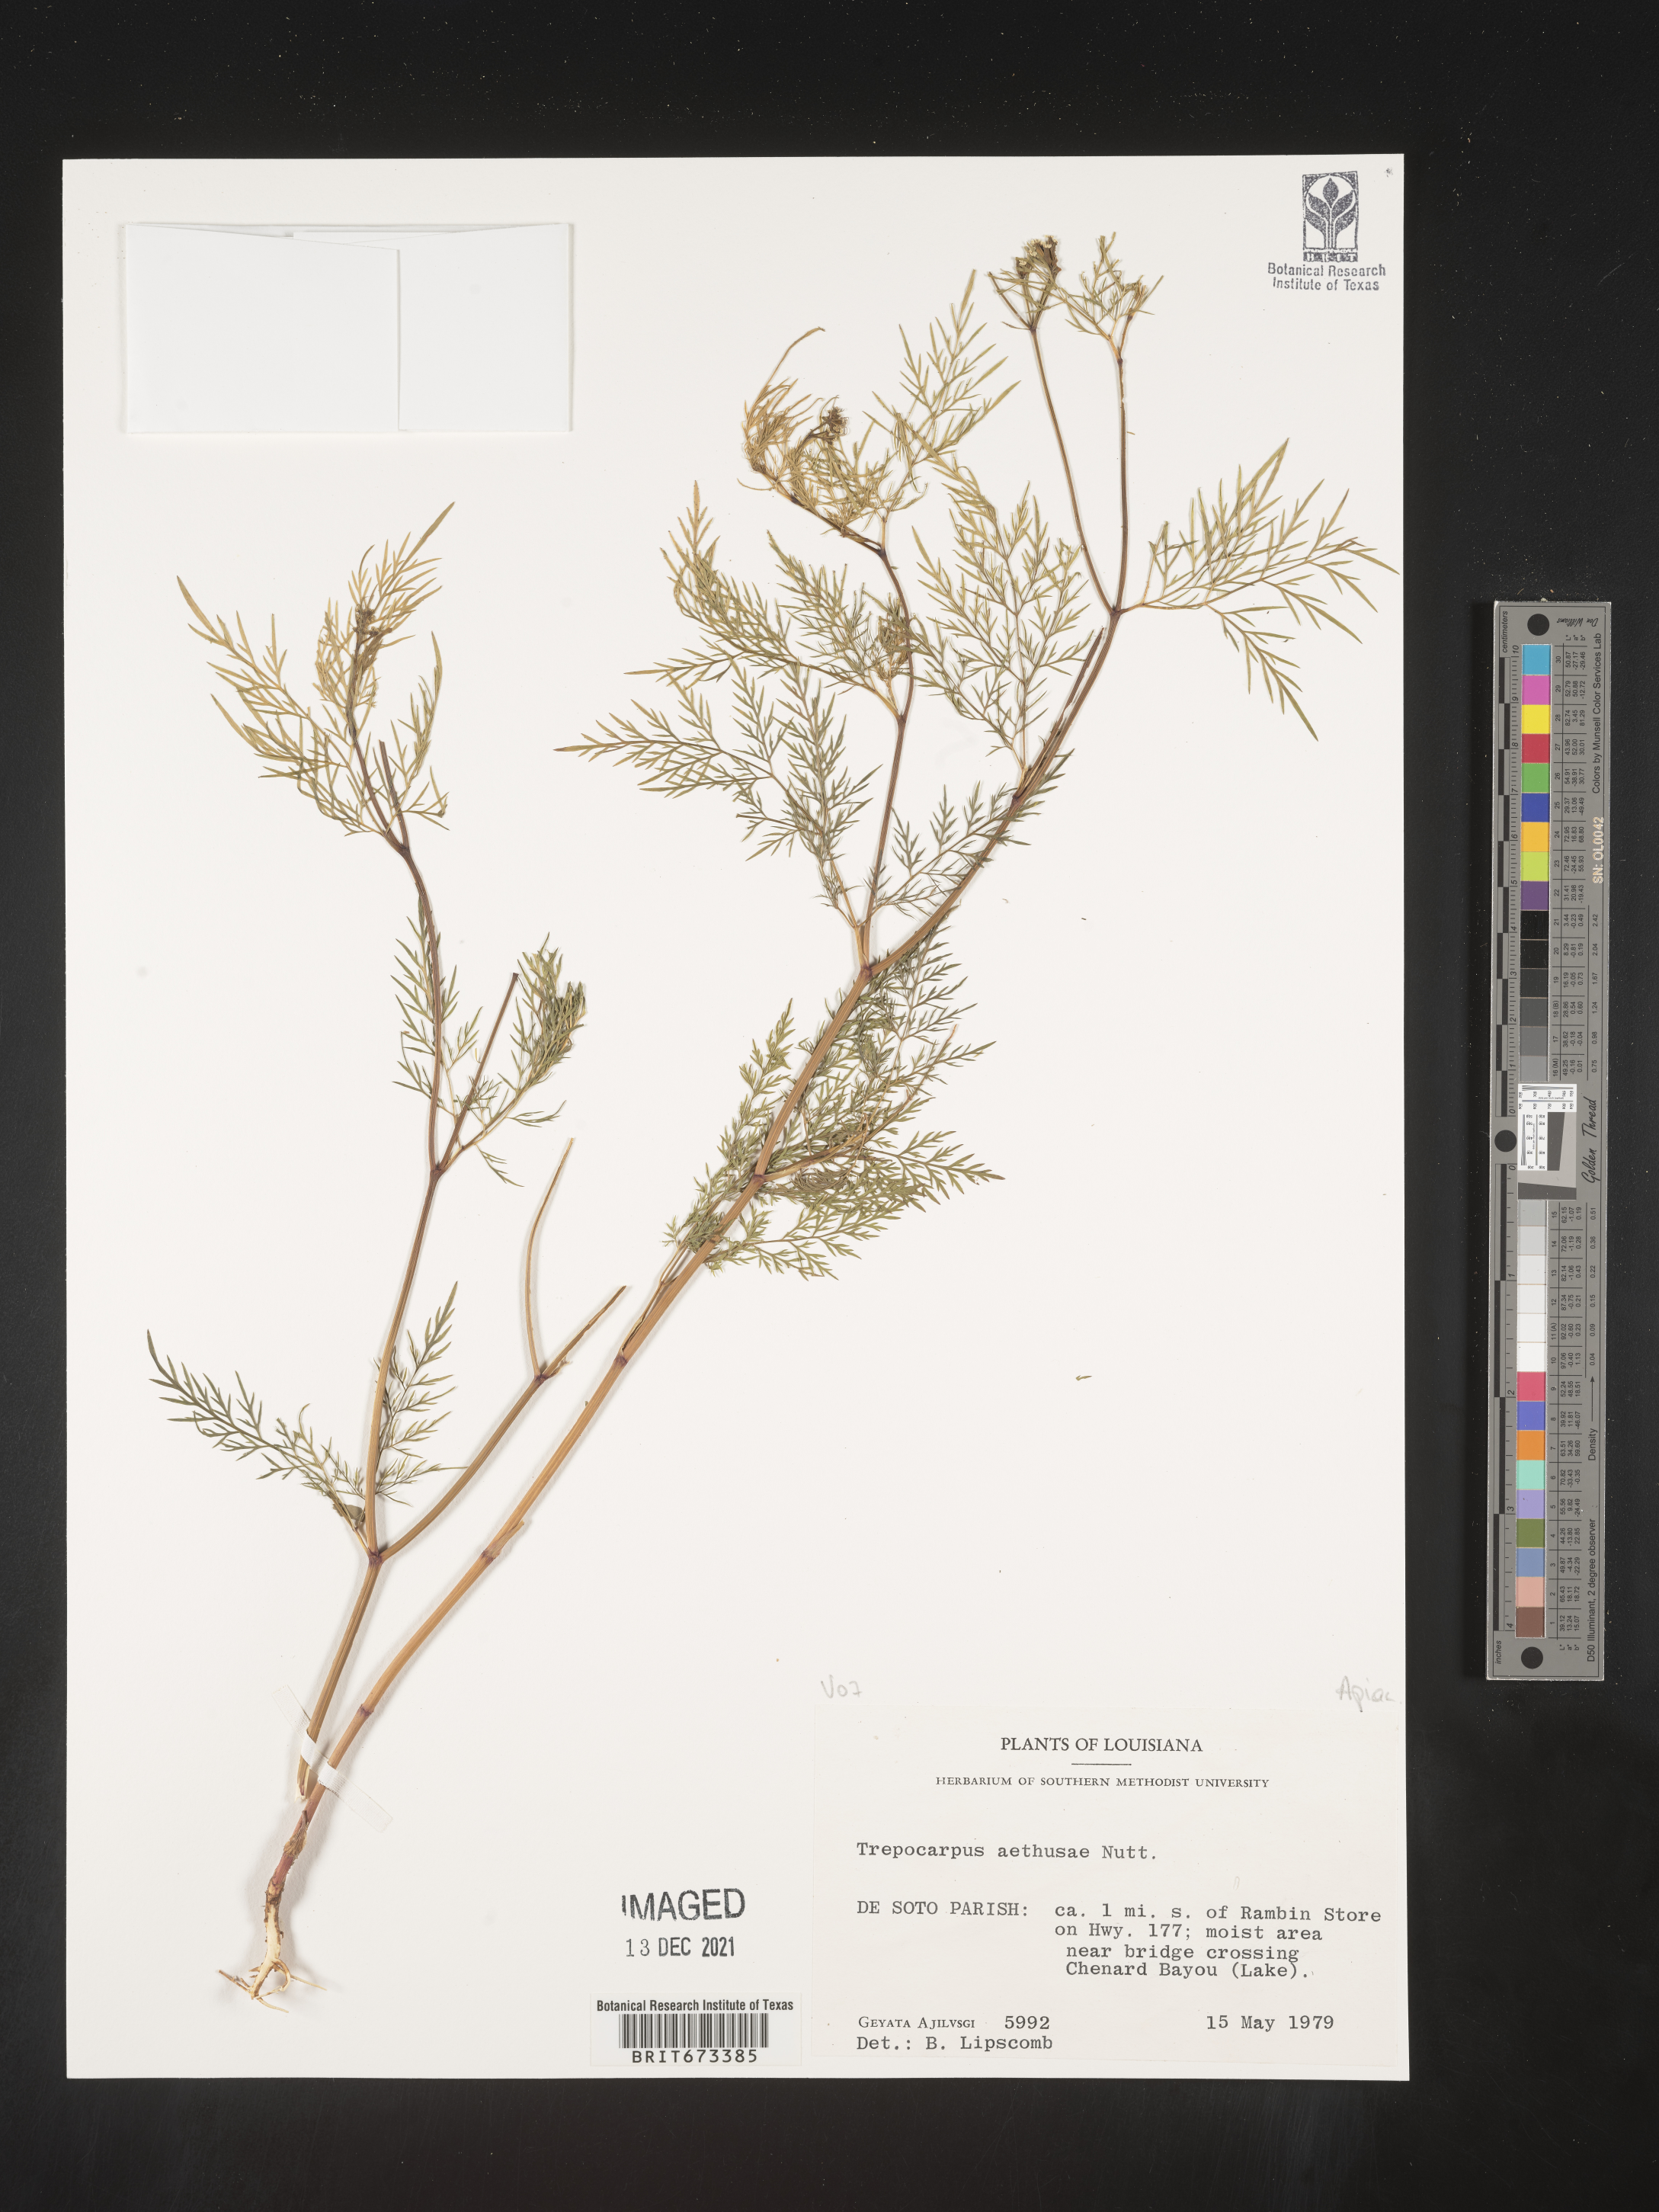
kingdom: Plantae
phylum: Tracheophyta
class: Magnoliopsida
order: Apiales
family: Apiaceae
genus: Trepocarpus
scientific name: Trepocarpus aethusae
